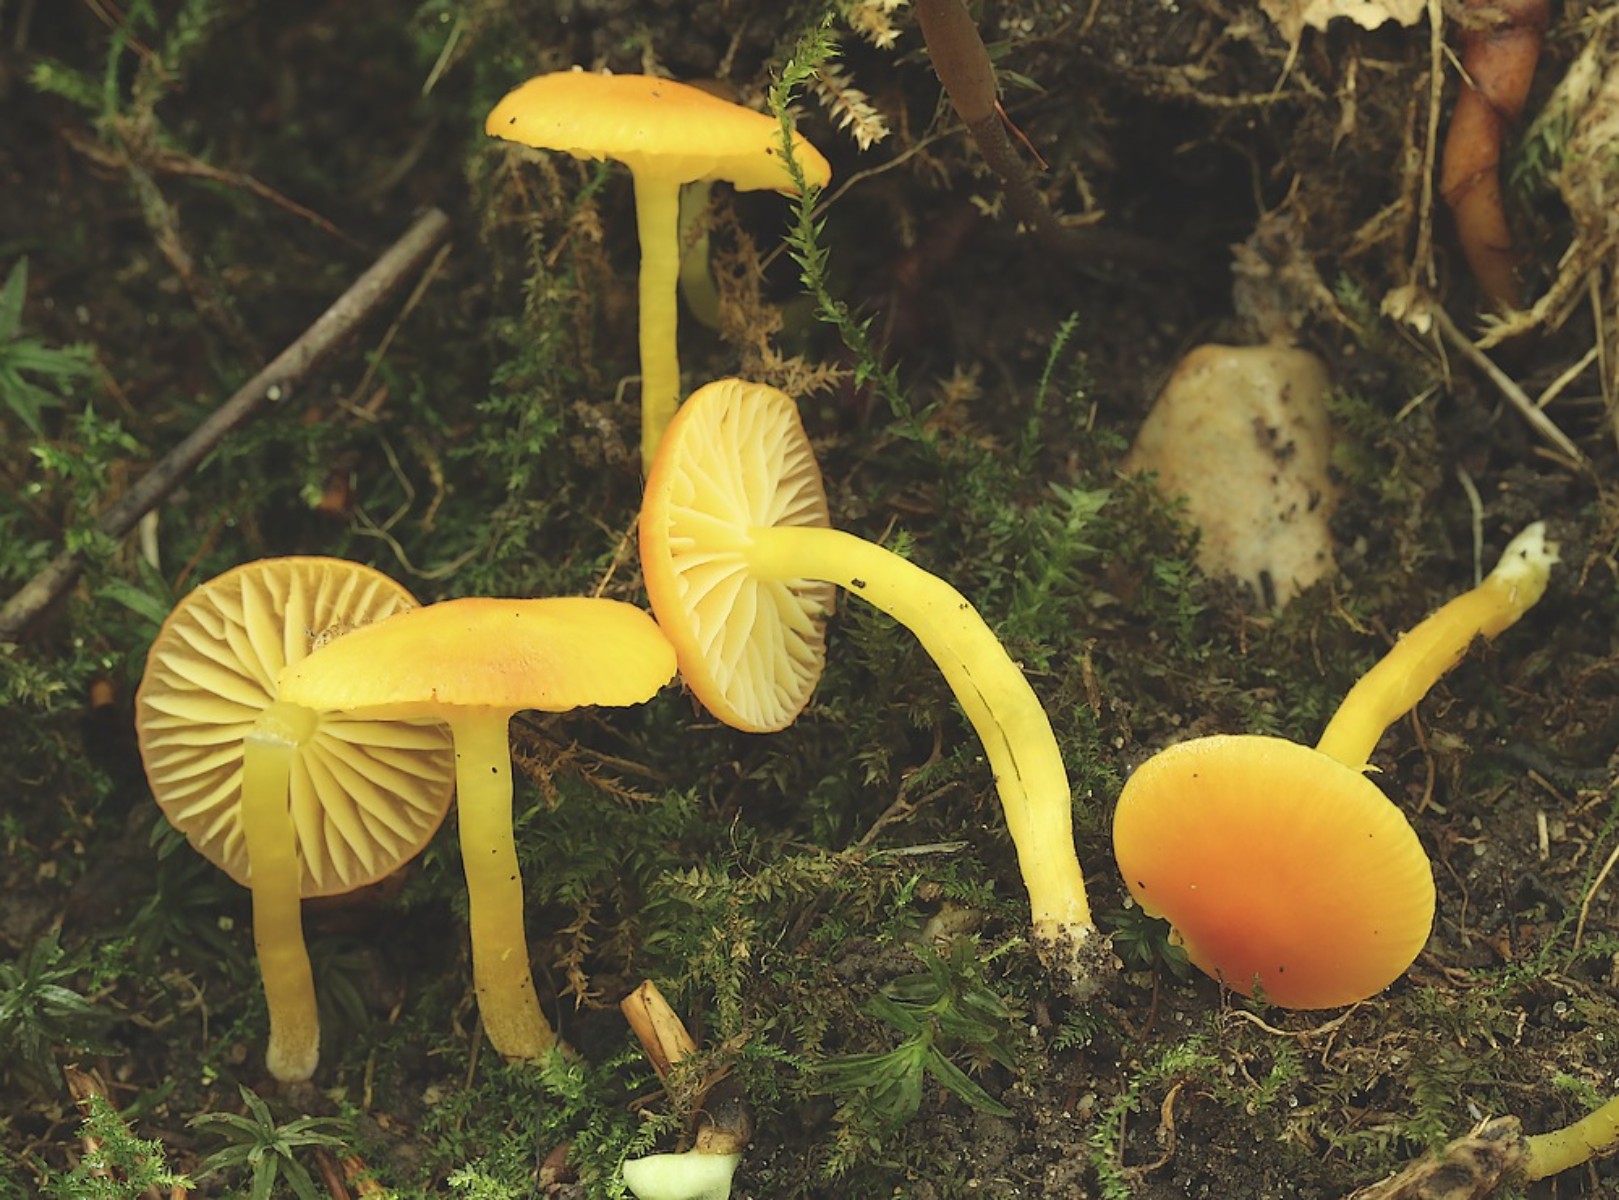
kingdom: Fungi
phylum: Basidiomycota
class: Agaricomycetes
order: Agaricales
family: Hygrophoraceae
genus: Hygrocybe
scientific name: Hygrocybe ceracea
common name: voksgul vokshat
